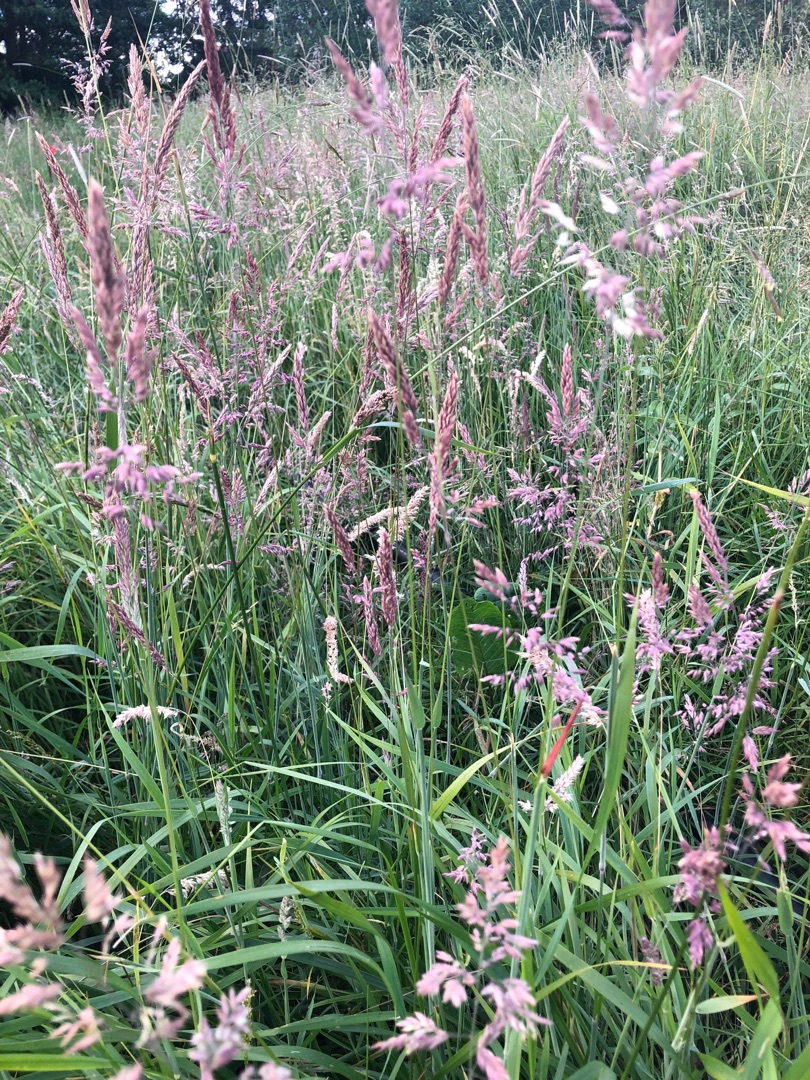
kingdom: Plantae
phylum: Tracheophyta
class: Liliopsida
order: Poales
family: Poaceae
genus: Holcus
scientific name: Holcus lanatus
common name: Fløjlsgræs
